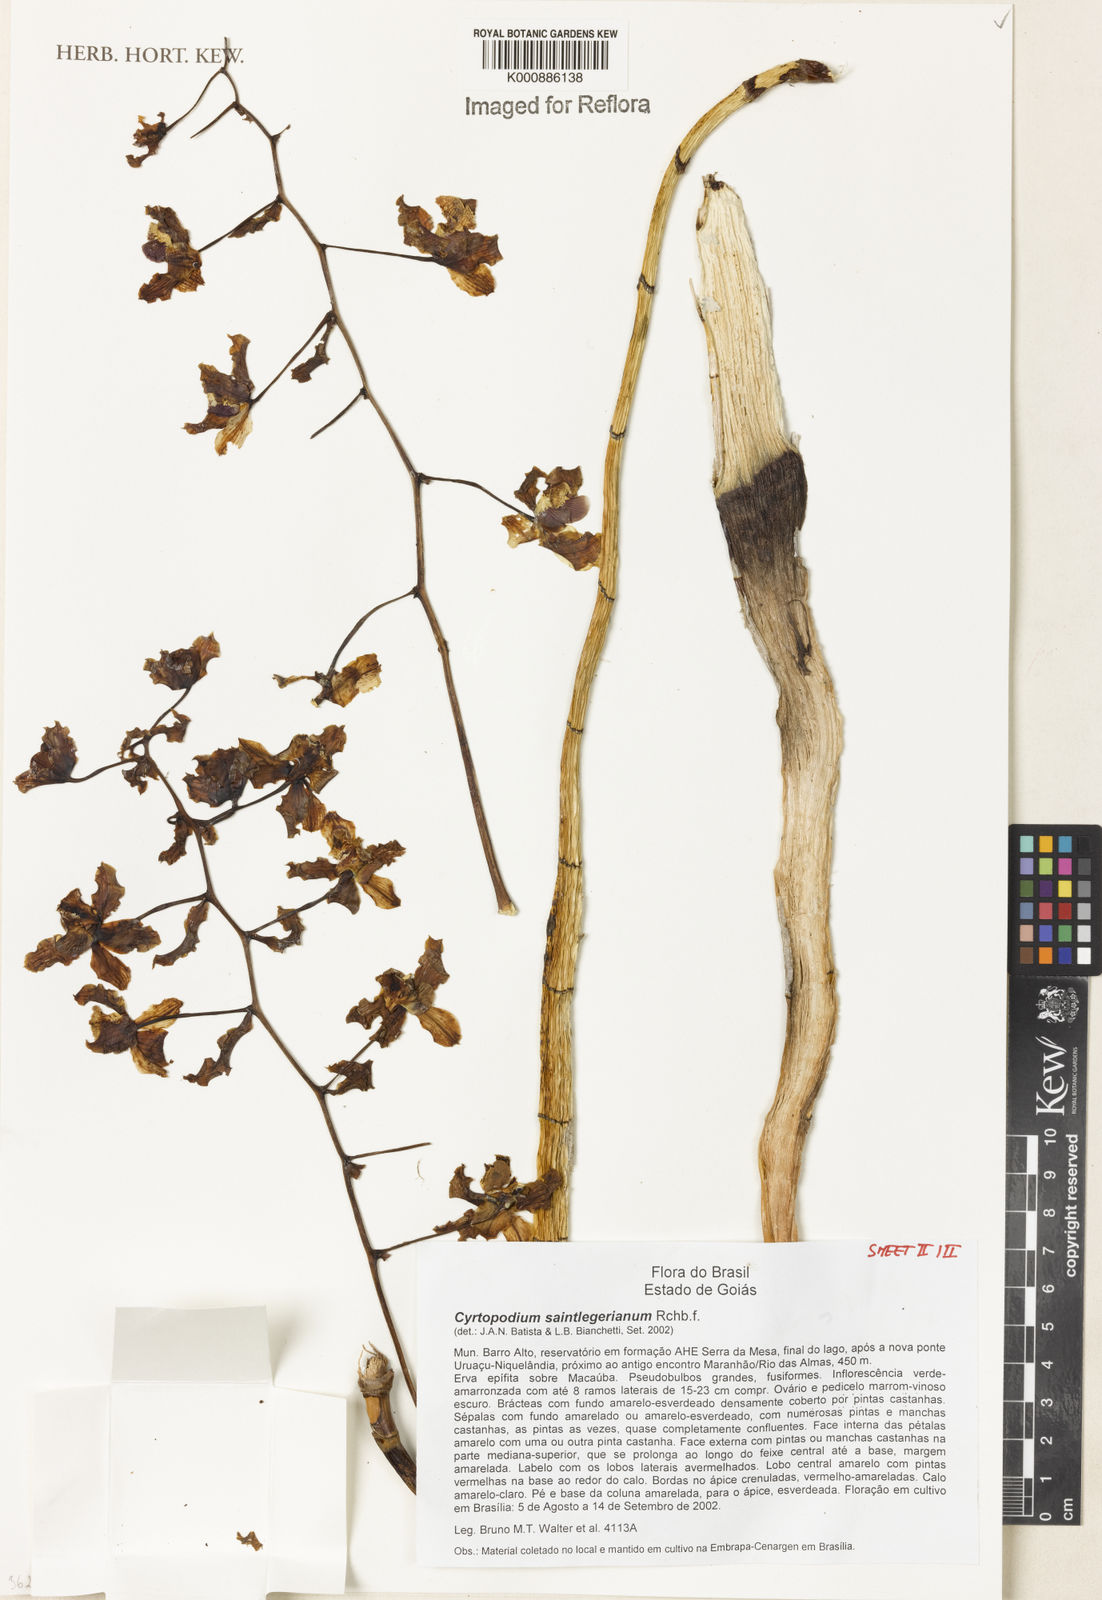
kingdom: Plantae
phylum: Tracheophyta
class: Liliopsida
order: Asparagales
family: Orchidaceae
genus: Cyrtopodium
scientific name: Cyrtopodium saintlegerianum
